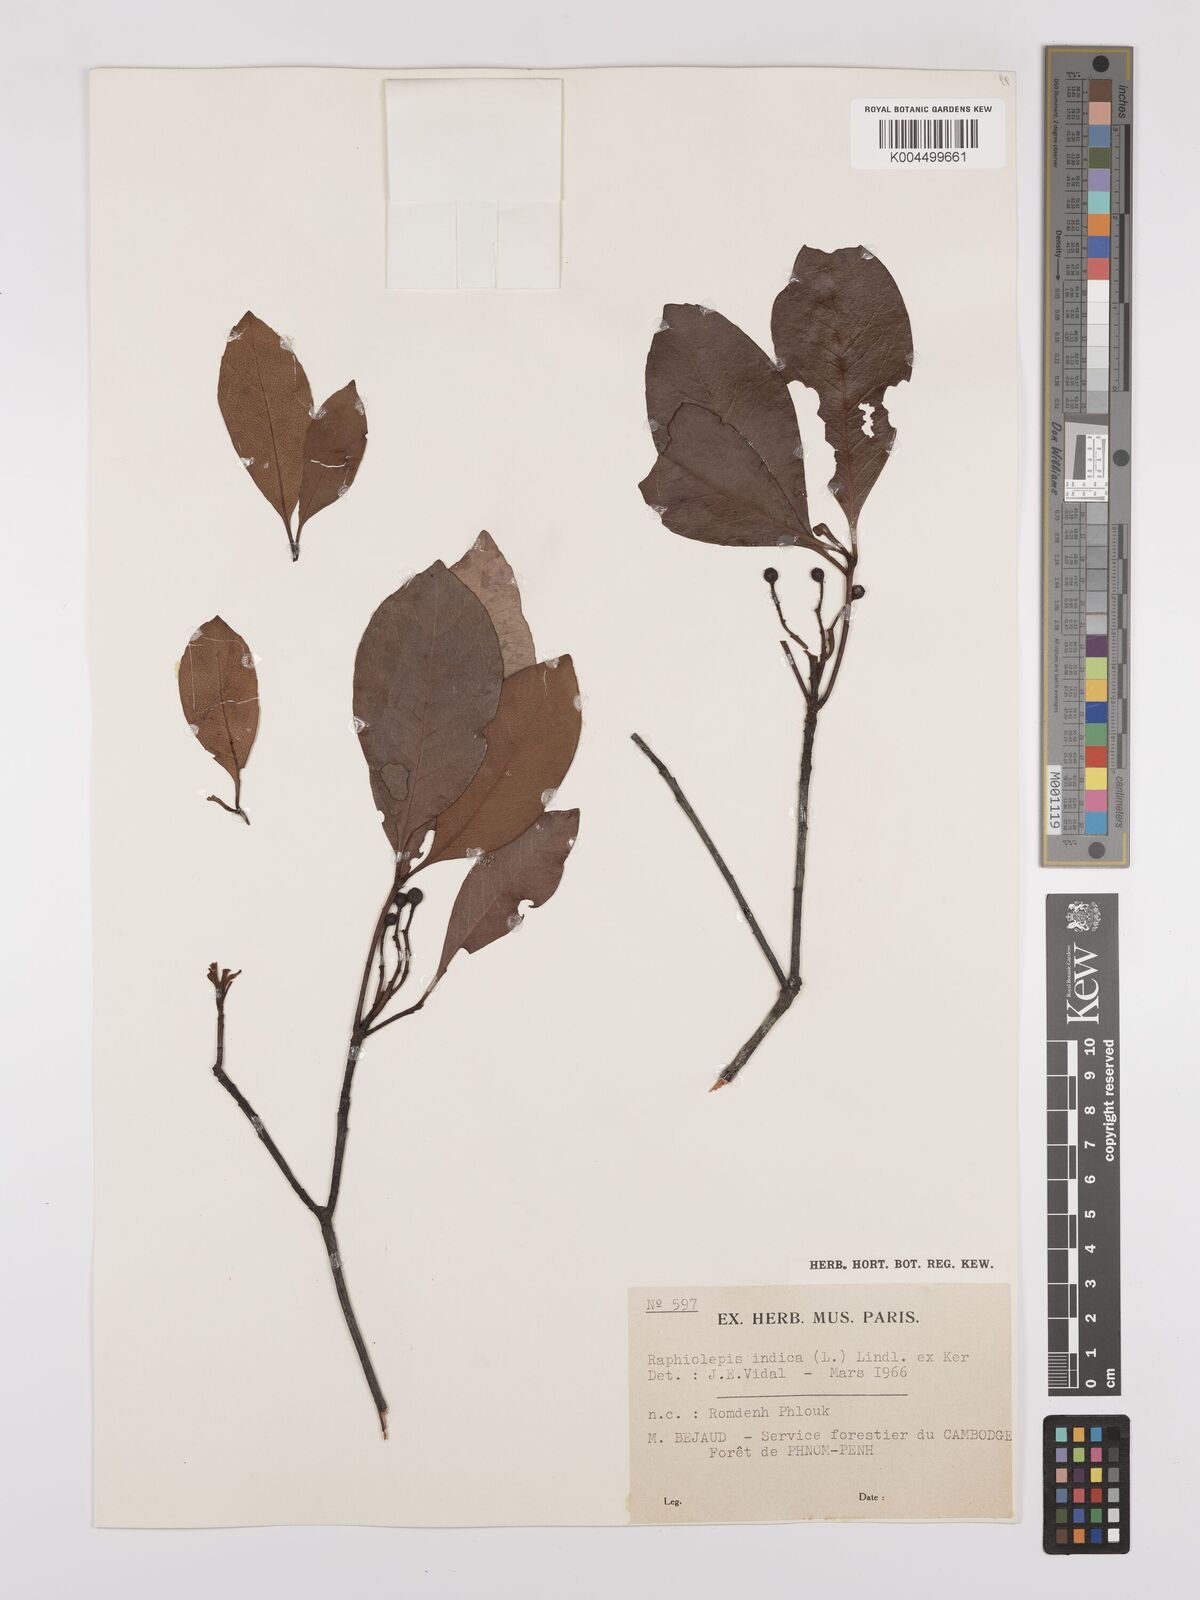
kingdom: Plantae
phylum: Tracheophyta
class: Magnoliopsida
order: Rosales
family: Rosaceae
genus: Rhaphiolepis
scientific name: Rhaphiolepis indica
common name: India-hawthorn
